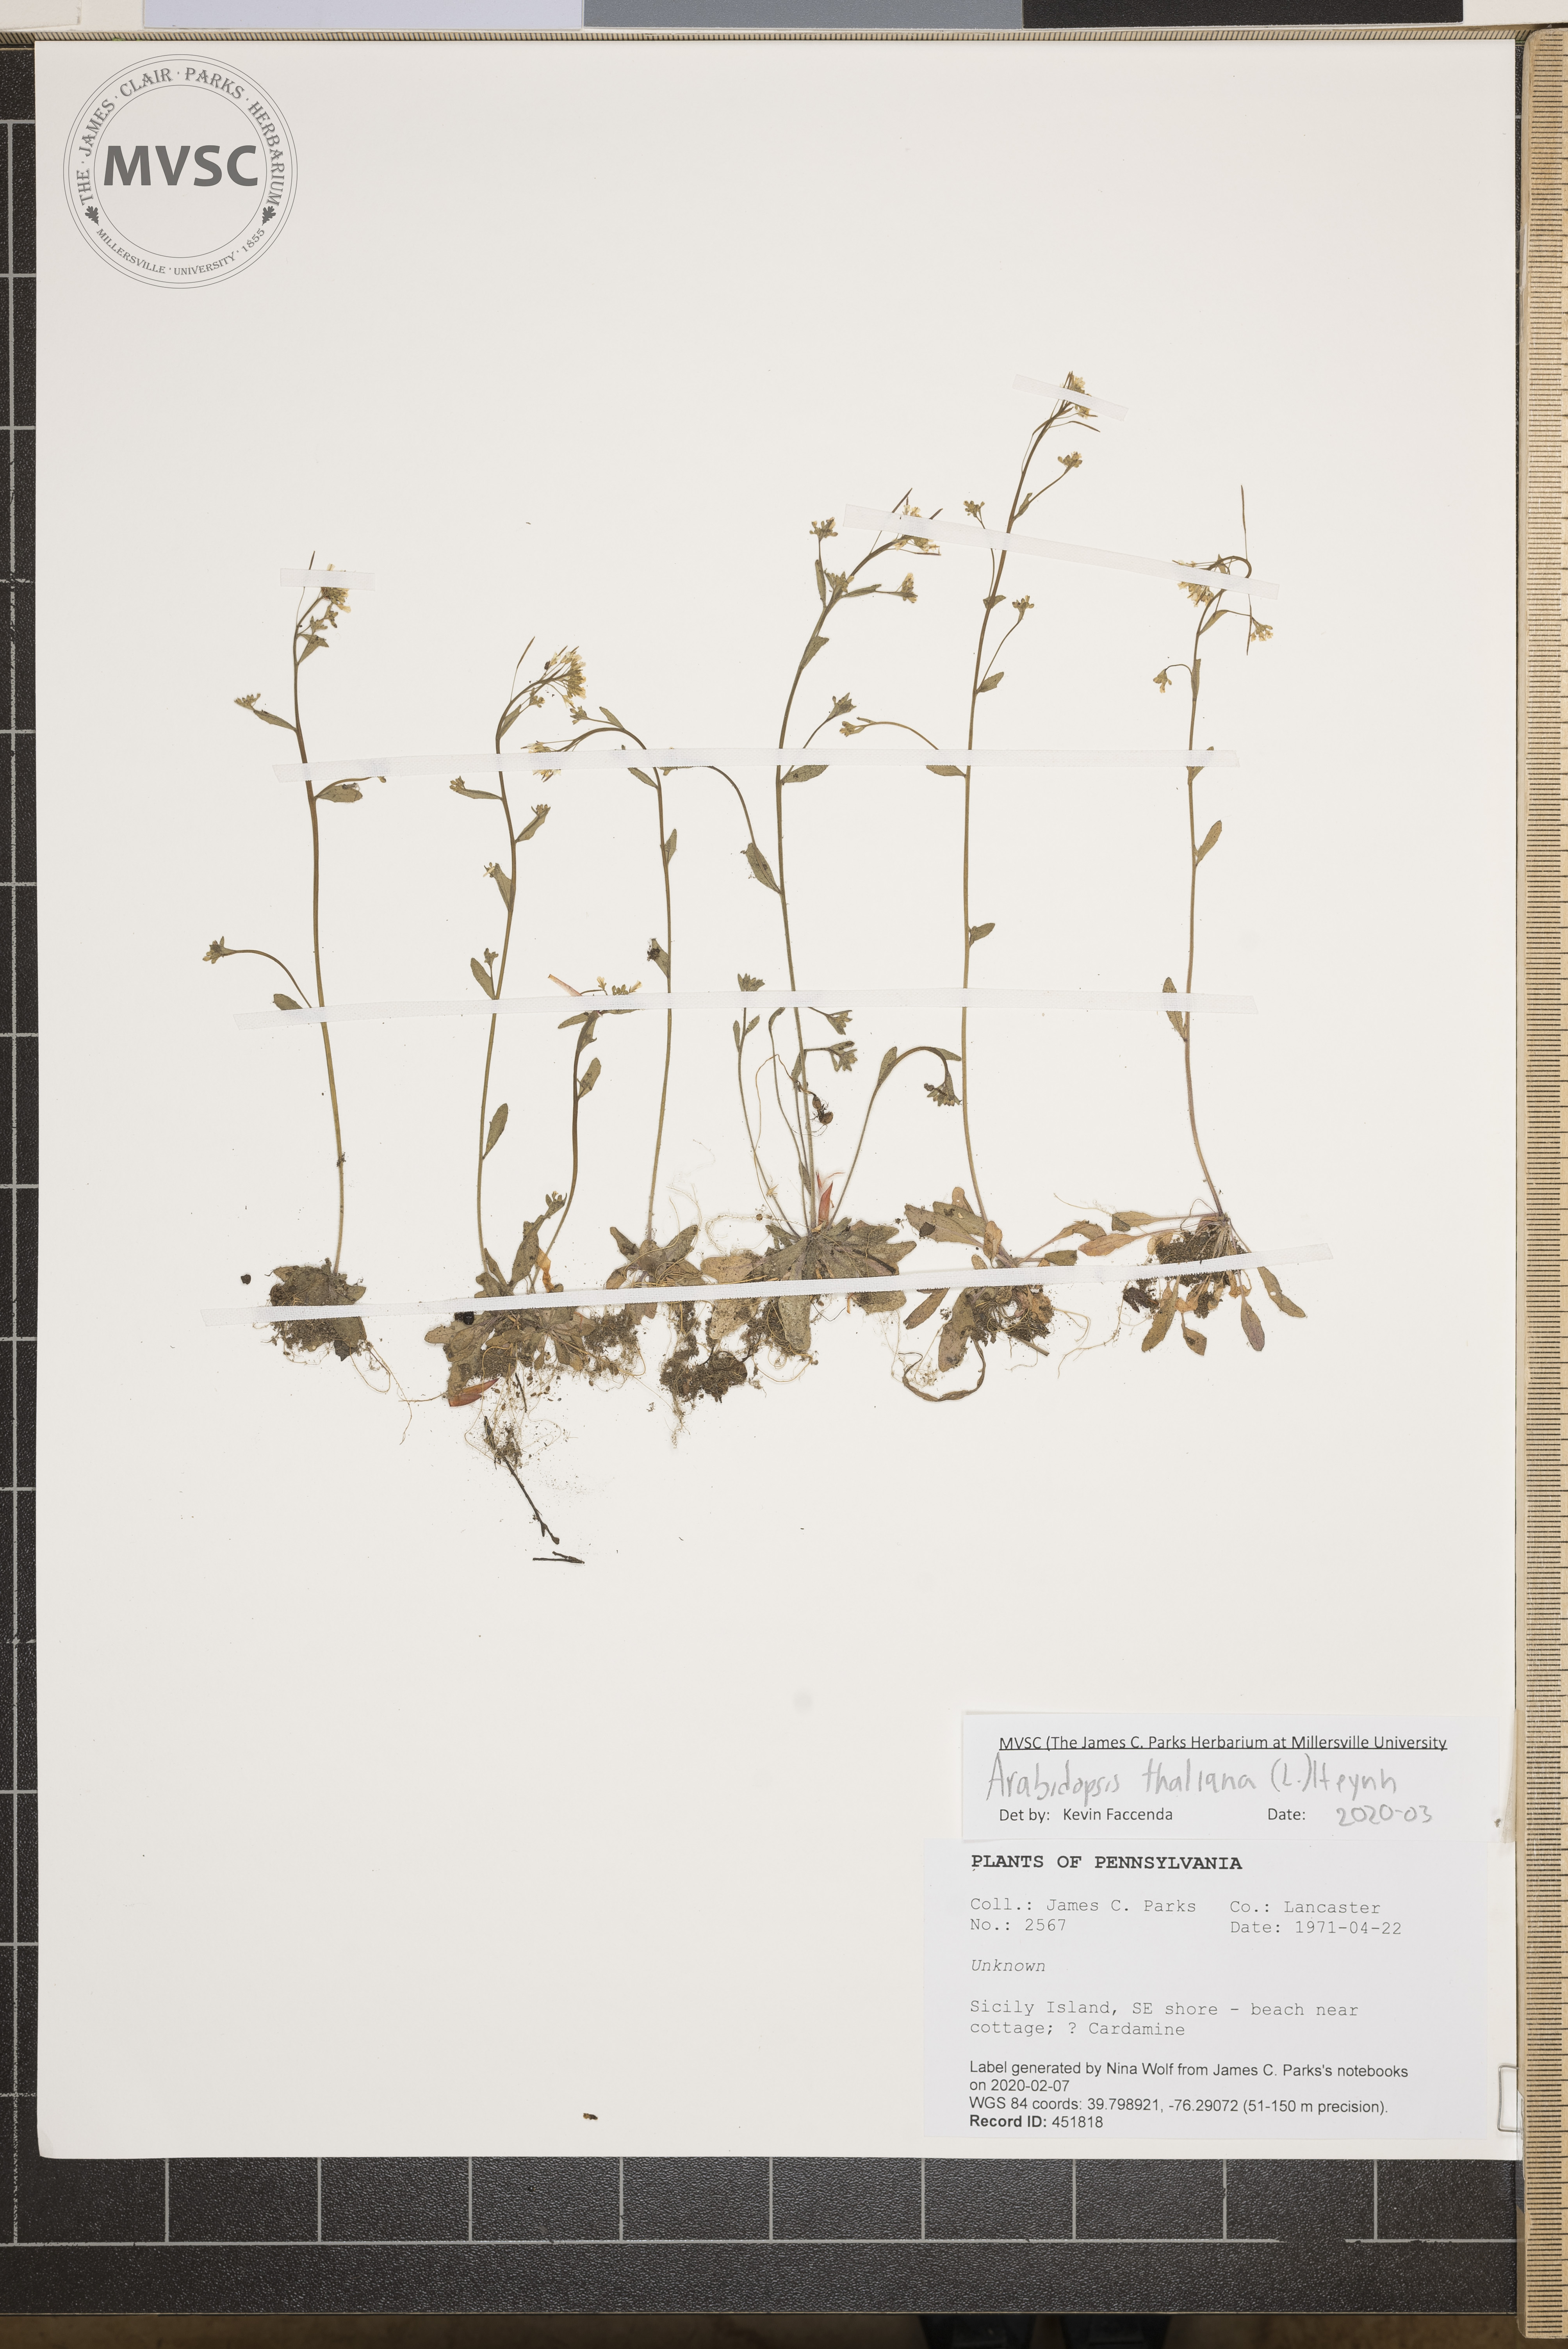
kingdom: Plantae
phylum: Tracheophyta
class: Magnoliopsida
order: Brassicales
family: Brassicaceae
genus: Arabidopsis
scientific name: Arabidopsis thaliana
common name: Thale cress
